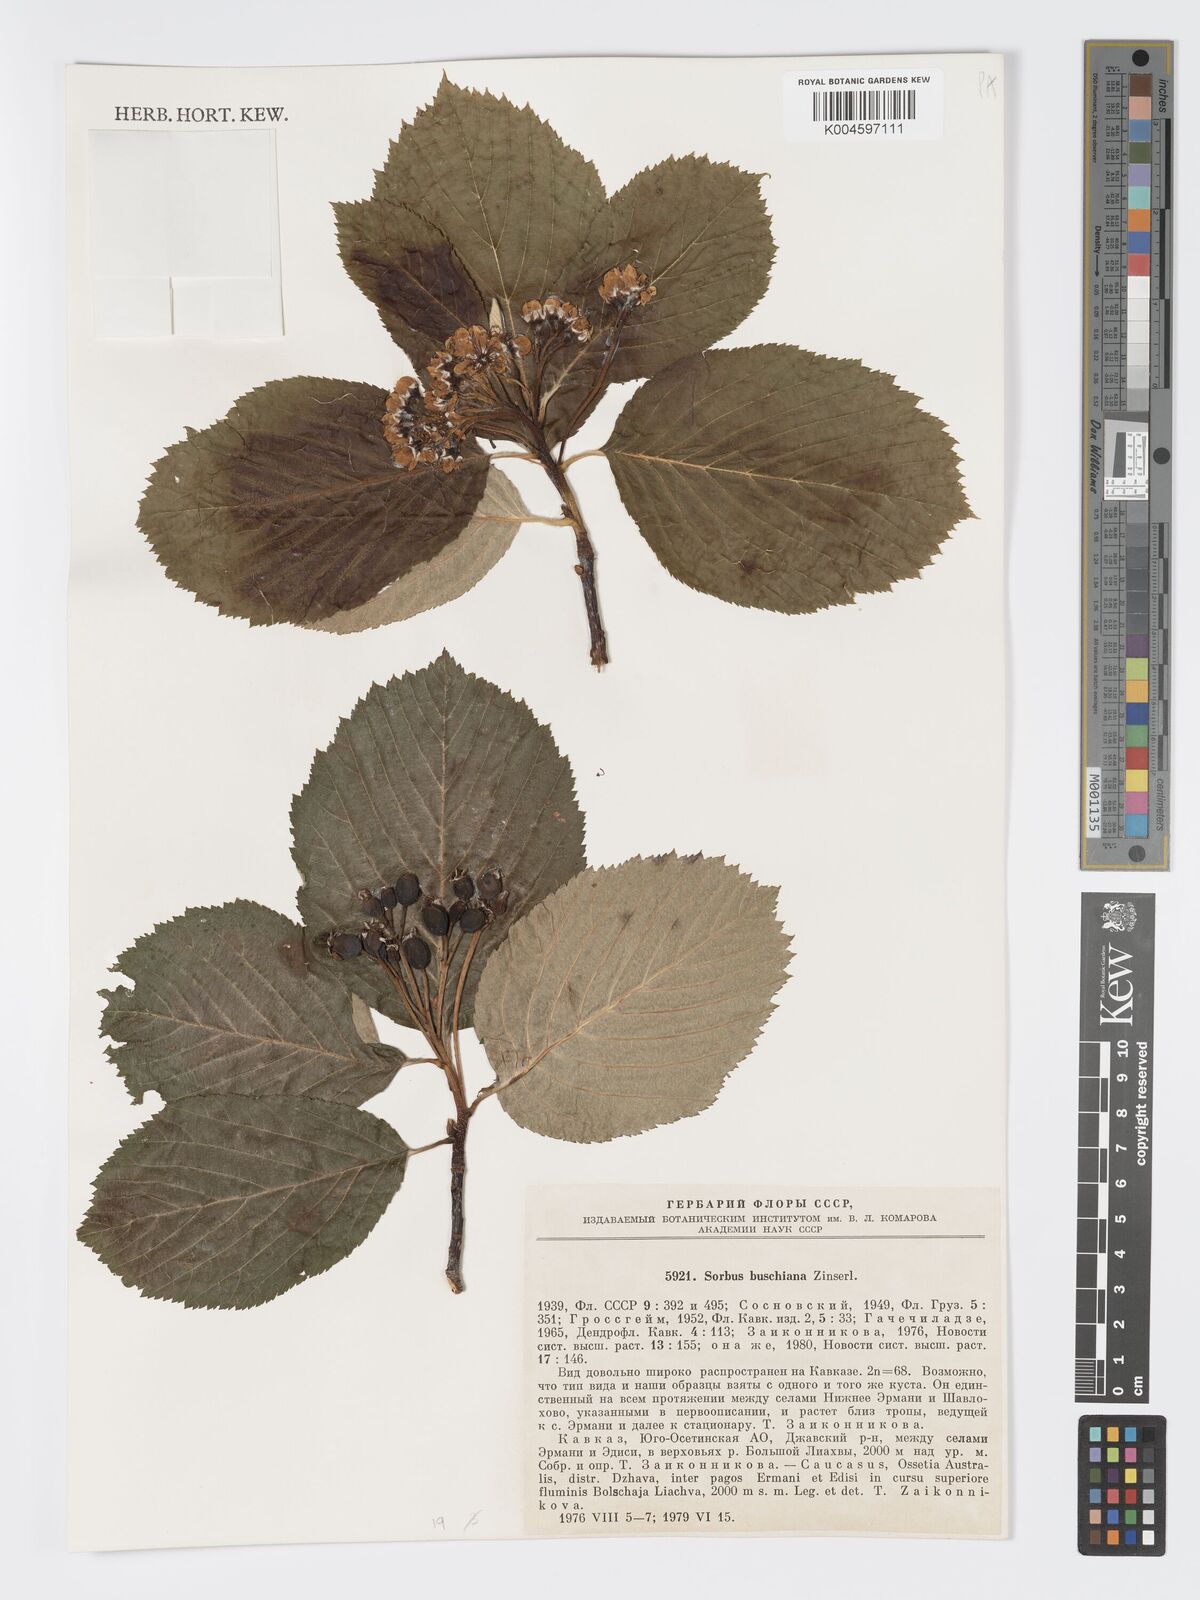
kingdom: Plantae
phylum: Tracheophyta
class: Magnoliopsida
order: Rosales
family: Rosaceae
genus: Sorbus
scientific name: Sorbus subfusca
